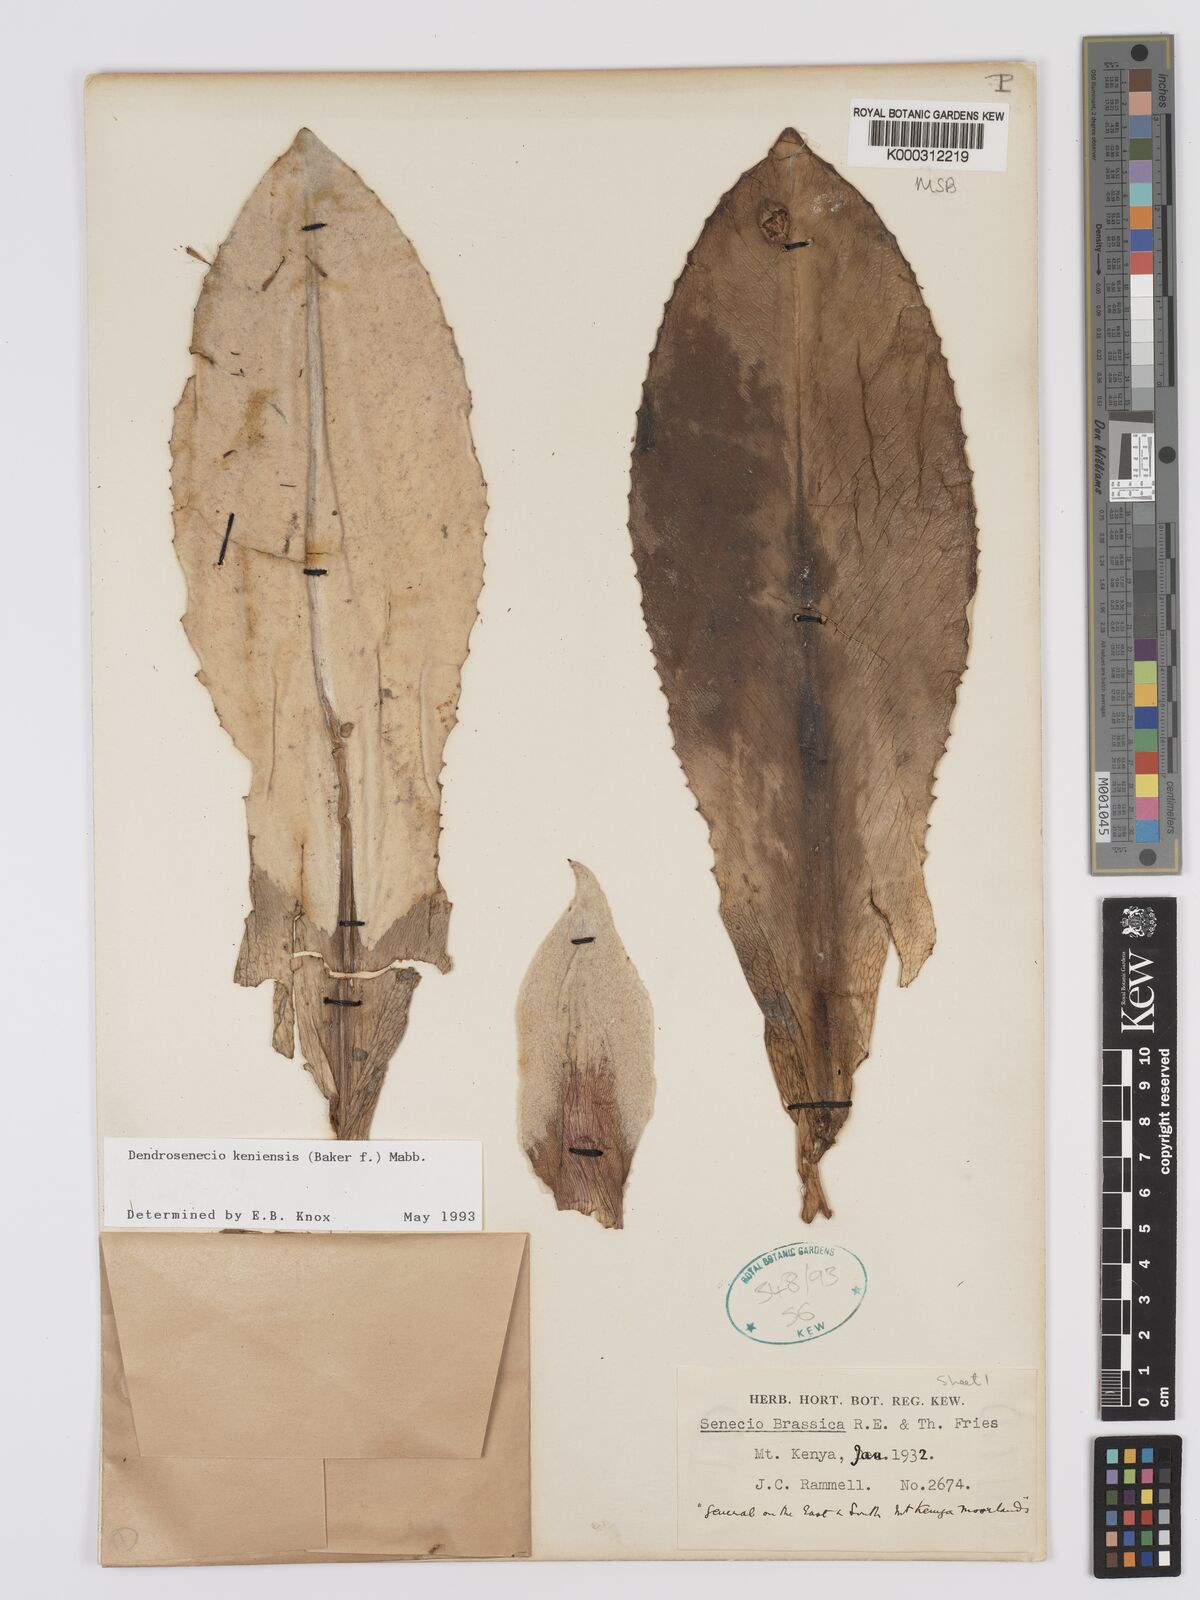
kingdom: Plantae
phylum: Tracheophyta
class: Magnoliopsida
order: Asterales
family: Asteraceae
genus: Dendrosenecio
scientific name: Dendrosenecio keniensis
